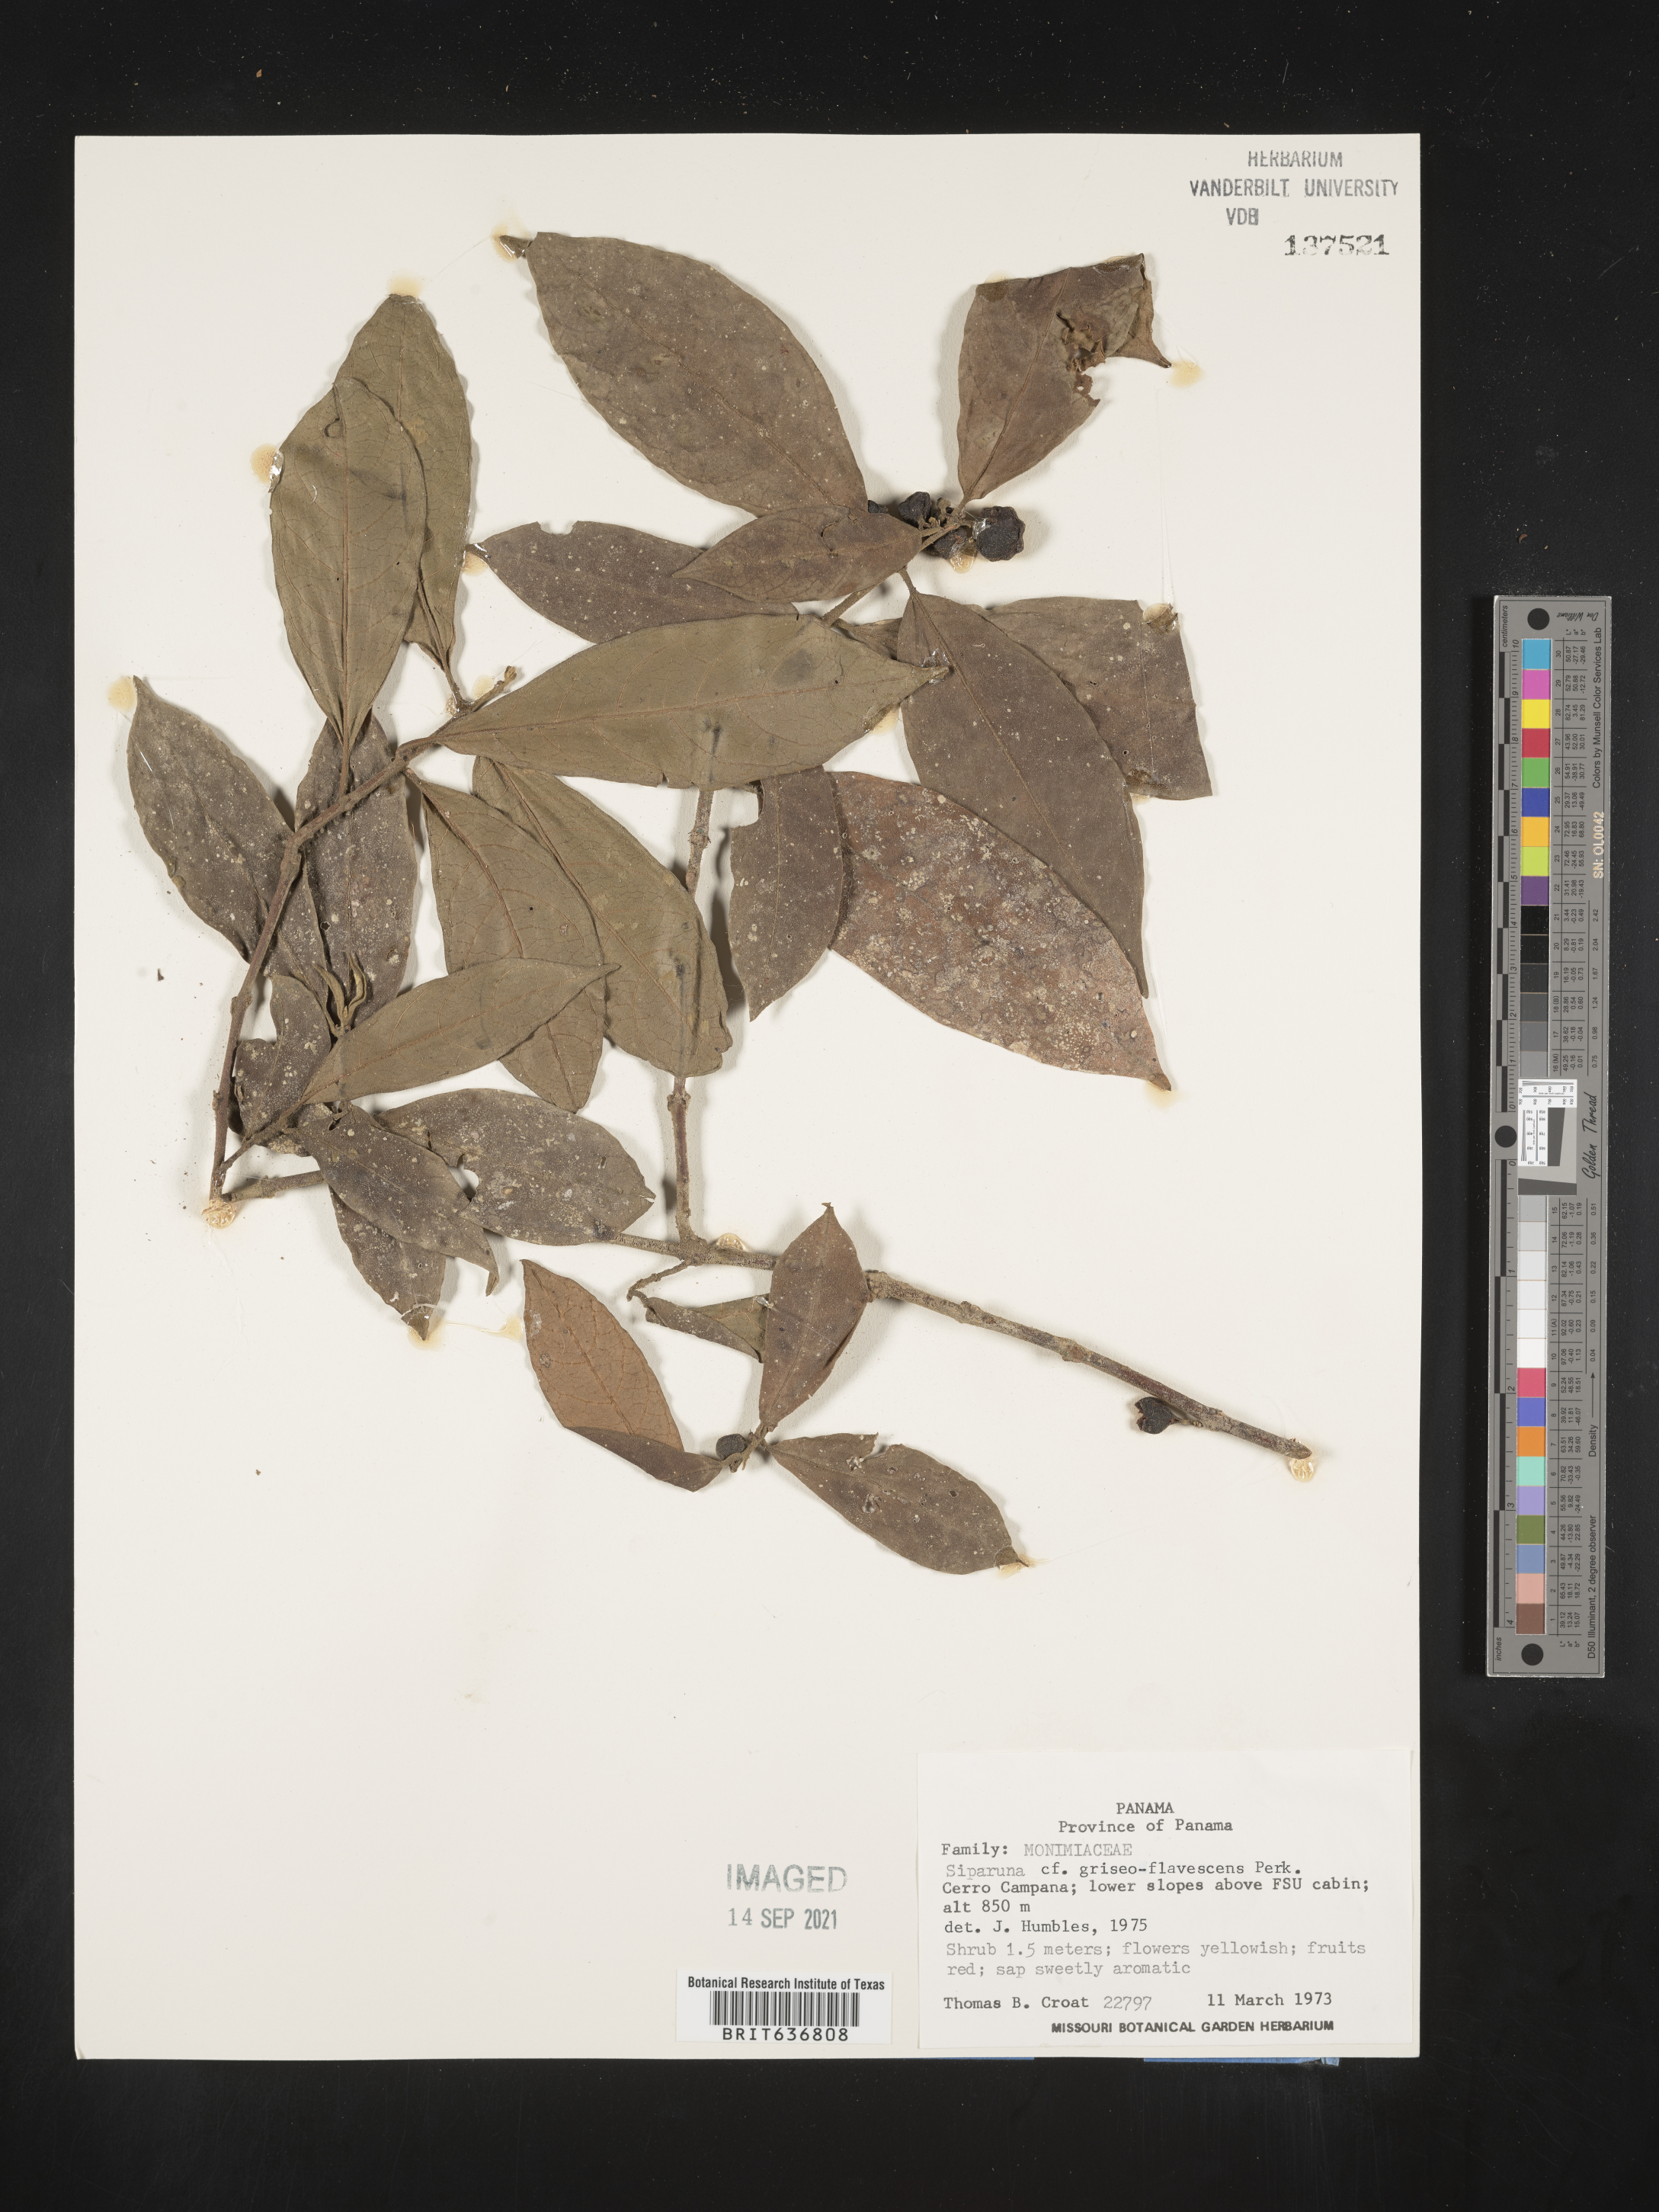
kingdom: Plantae
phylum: Tracheophyta
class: Magnoliopsida
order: Laurales
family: Siparunaceae
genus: Siparuna
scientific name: Siparuna
